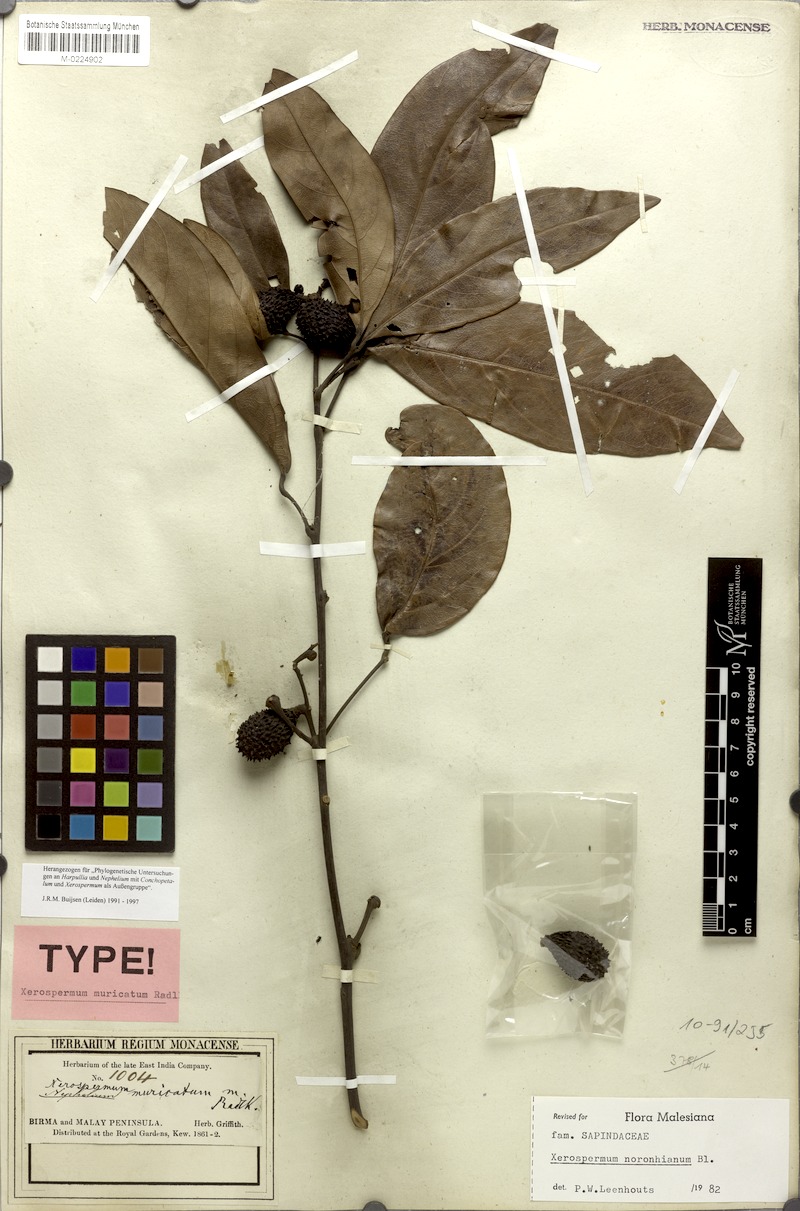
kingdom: Plantae
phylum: Tracheophyta
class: Magnoliopsida
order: Sapindales
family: Sapindaceae
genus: Xerospermum
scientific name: Xerospermum noronhianum
